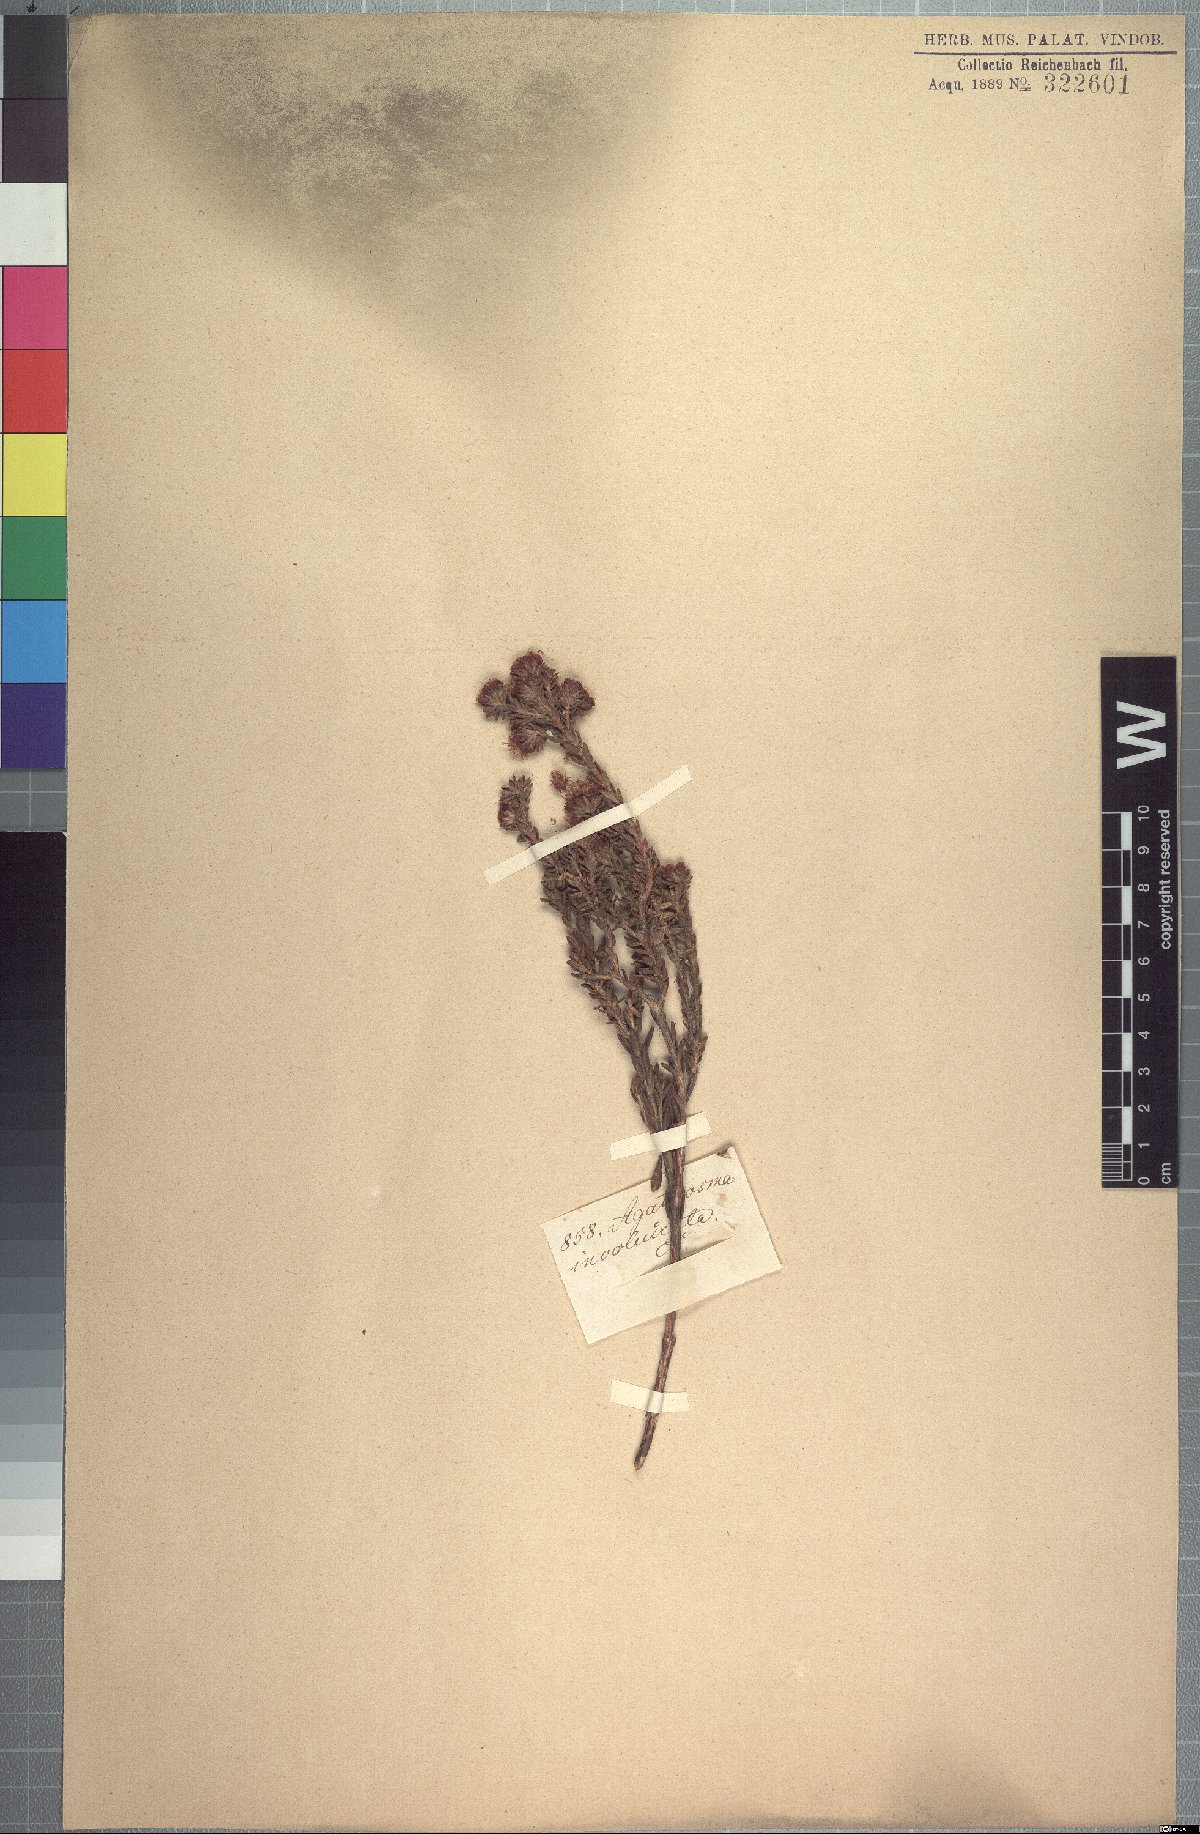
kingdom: Plantae
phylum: Tracheophyta
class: Magnoliopsida
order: Sapindales
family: Rutaceae
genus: Agathosma
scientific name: Agathosma involucrata
